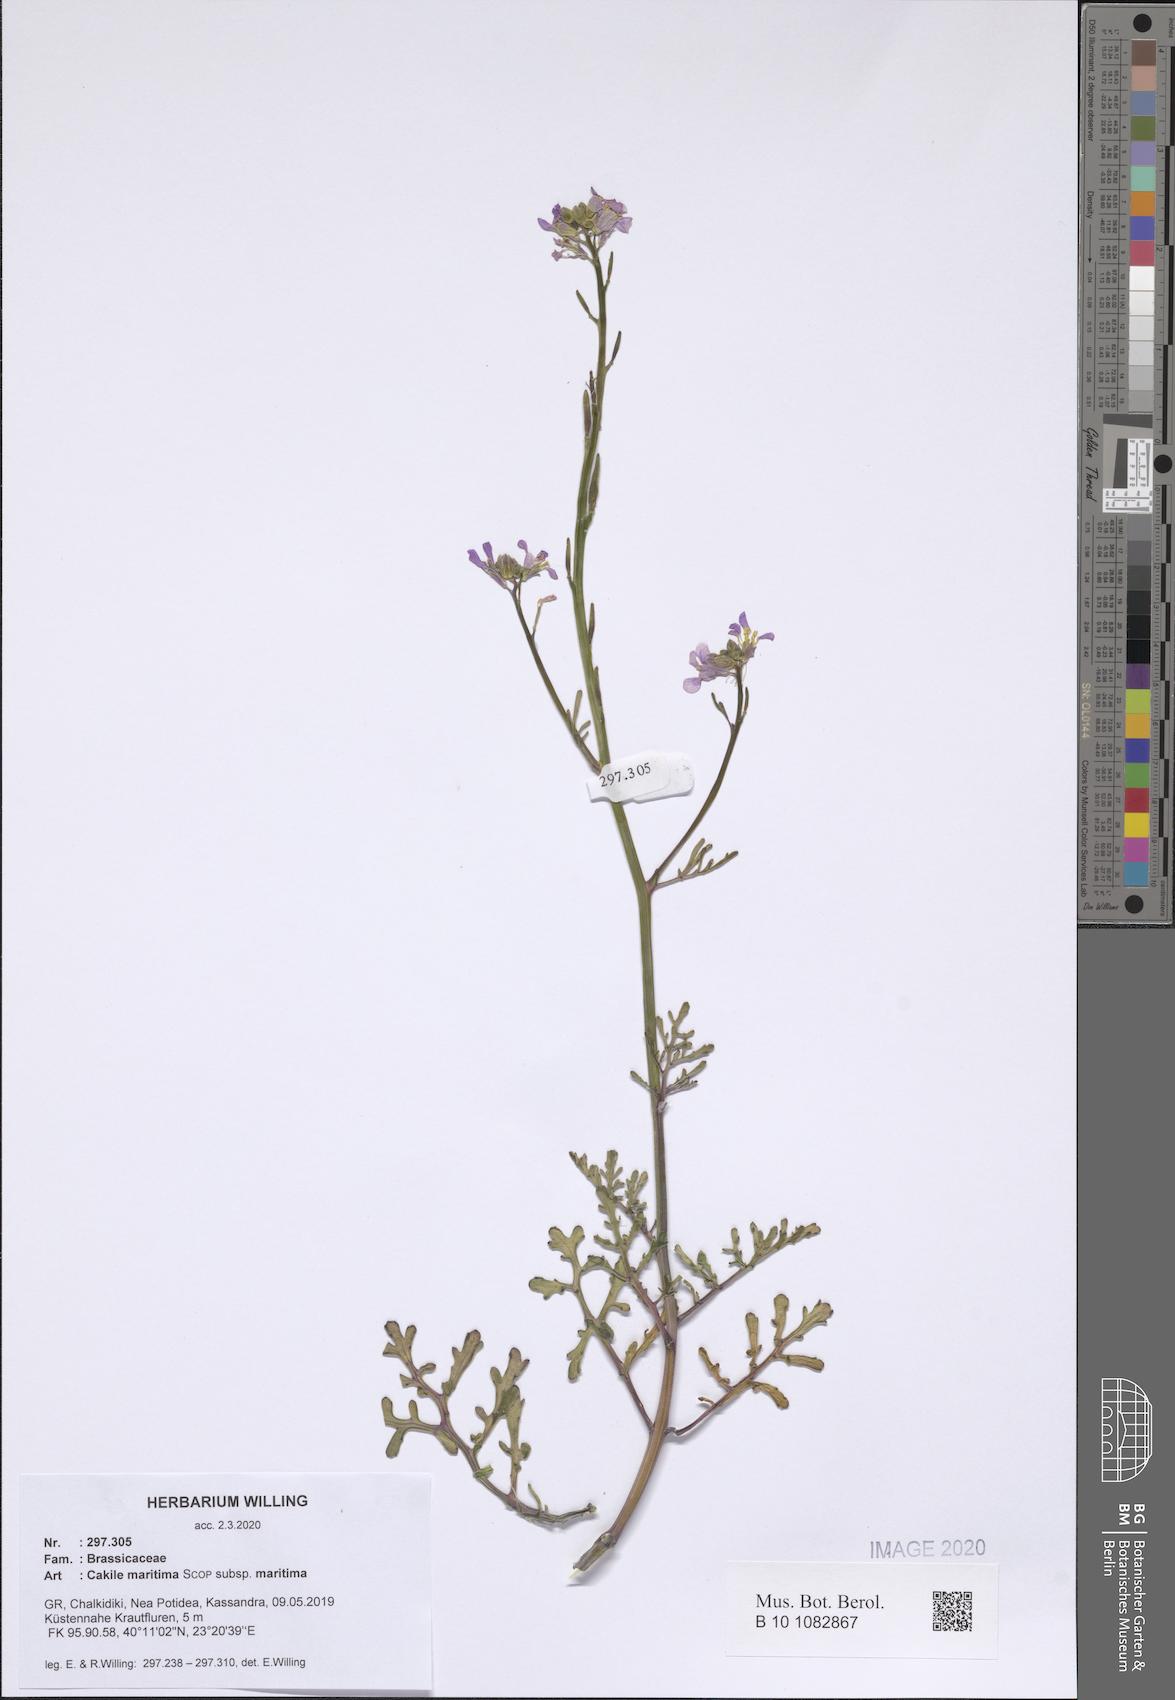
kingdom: Plantae
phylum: Tracheophyta
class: Magnoliopsida
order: Brassicales
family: Brassicaceae
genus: Cakile
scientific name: Cakile maritima
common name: Sea rocket
